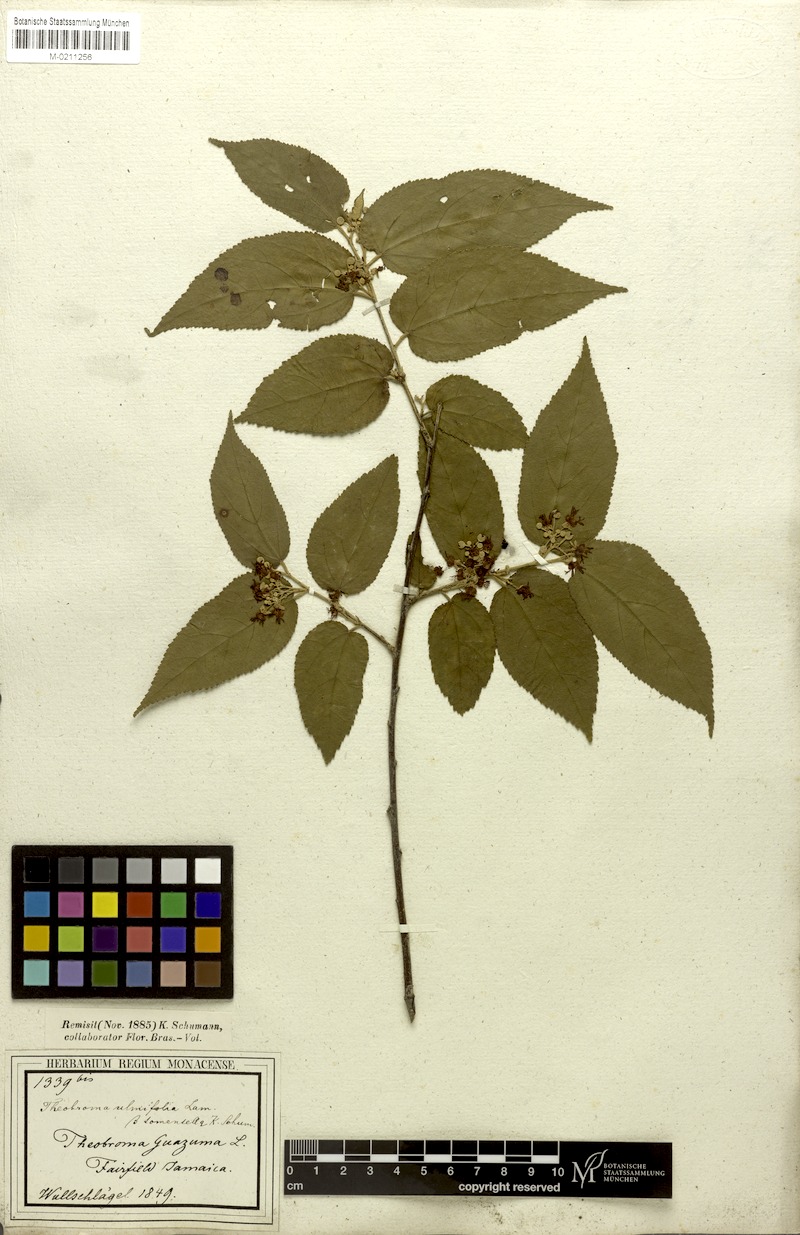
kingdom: Plantae
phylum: Tracheophyta
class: Magnoliopsida
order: Malvales
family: Malvaceae
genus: Guazuma
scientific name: Guazuma ulmifolia
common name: Bastard-cedar
